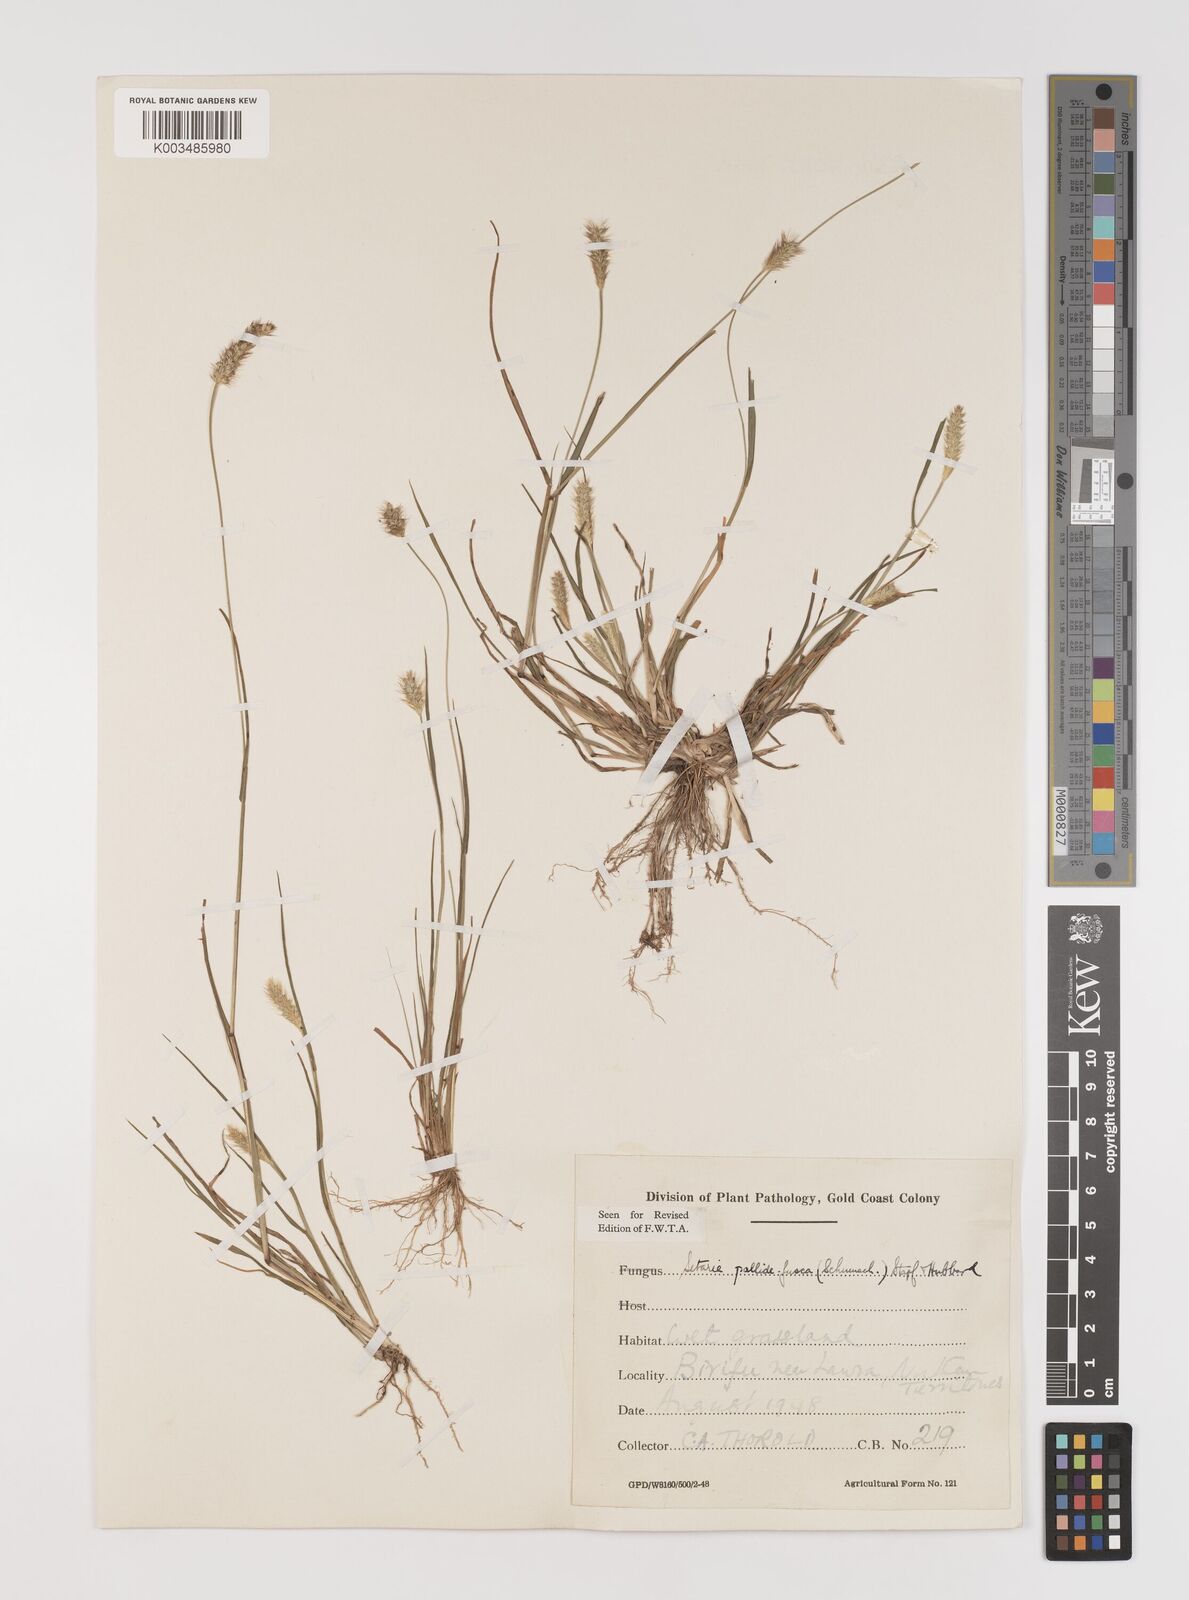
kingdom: Plantae
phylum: Tracheophyta
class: Liliopsida
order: Poales
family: Poaceae
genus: Setaria
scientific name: Setaria pumila
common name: Yellow bristle-grass
